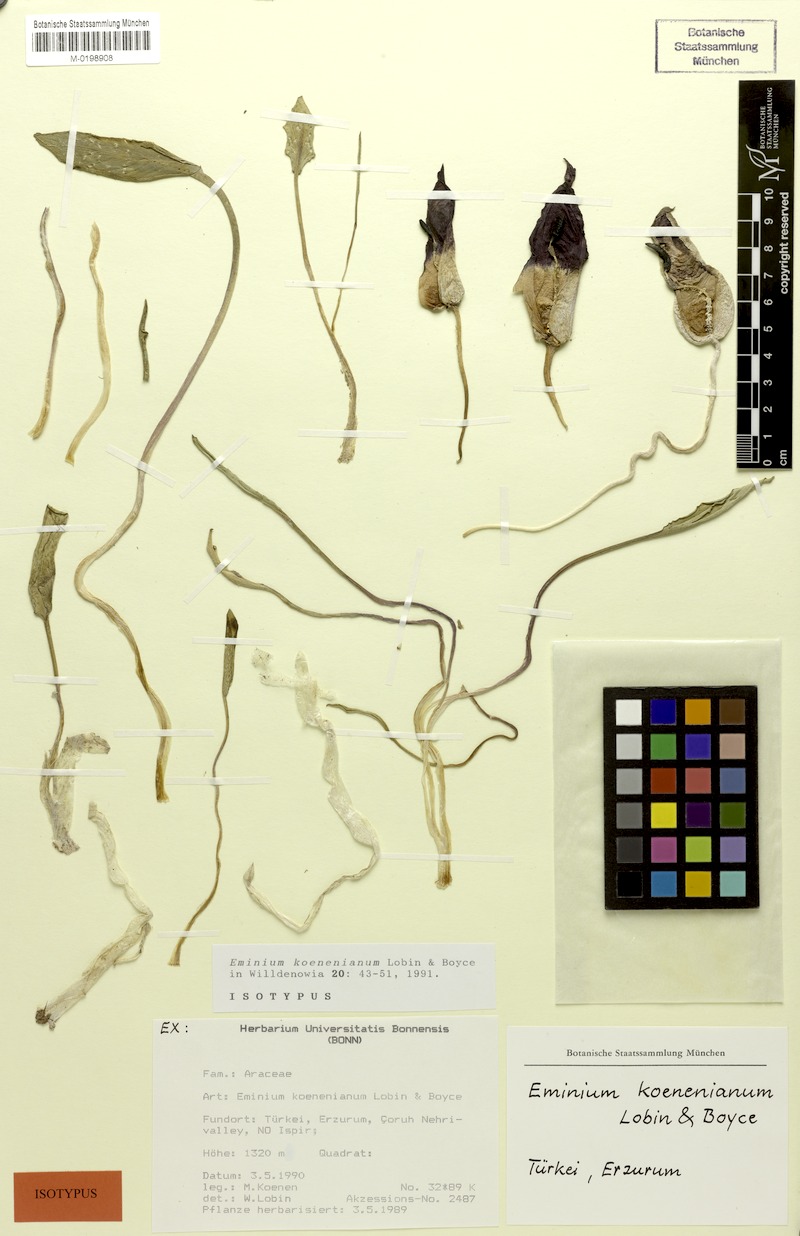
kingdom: Plantae
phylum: Tracheophyta
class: Liliopsida
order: Alismatales
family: Araceae
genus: Eminium
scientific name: Eminium koenenianum
